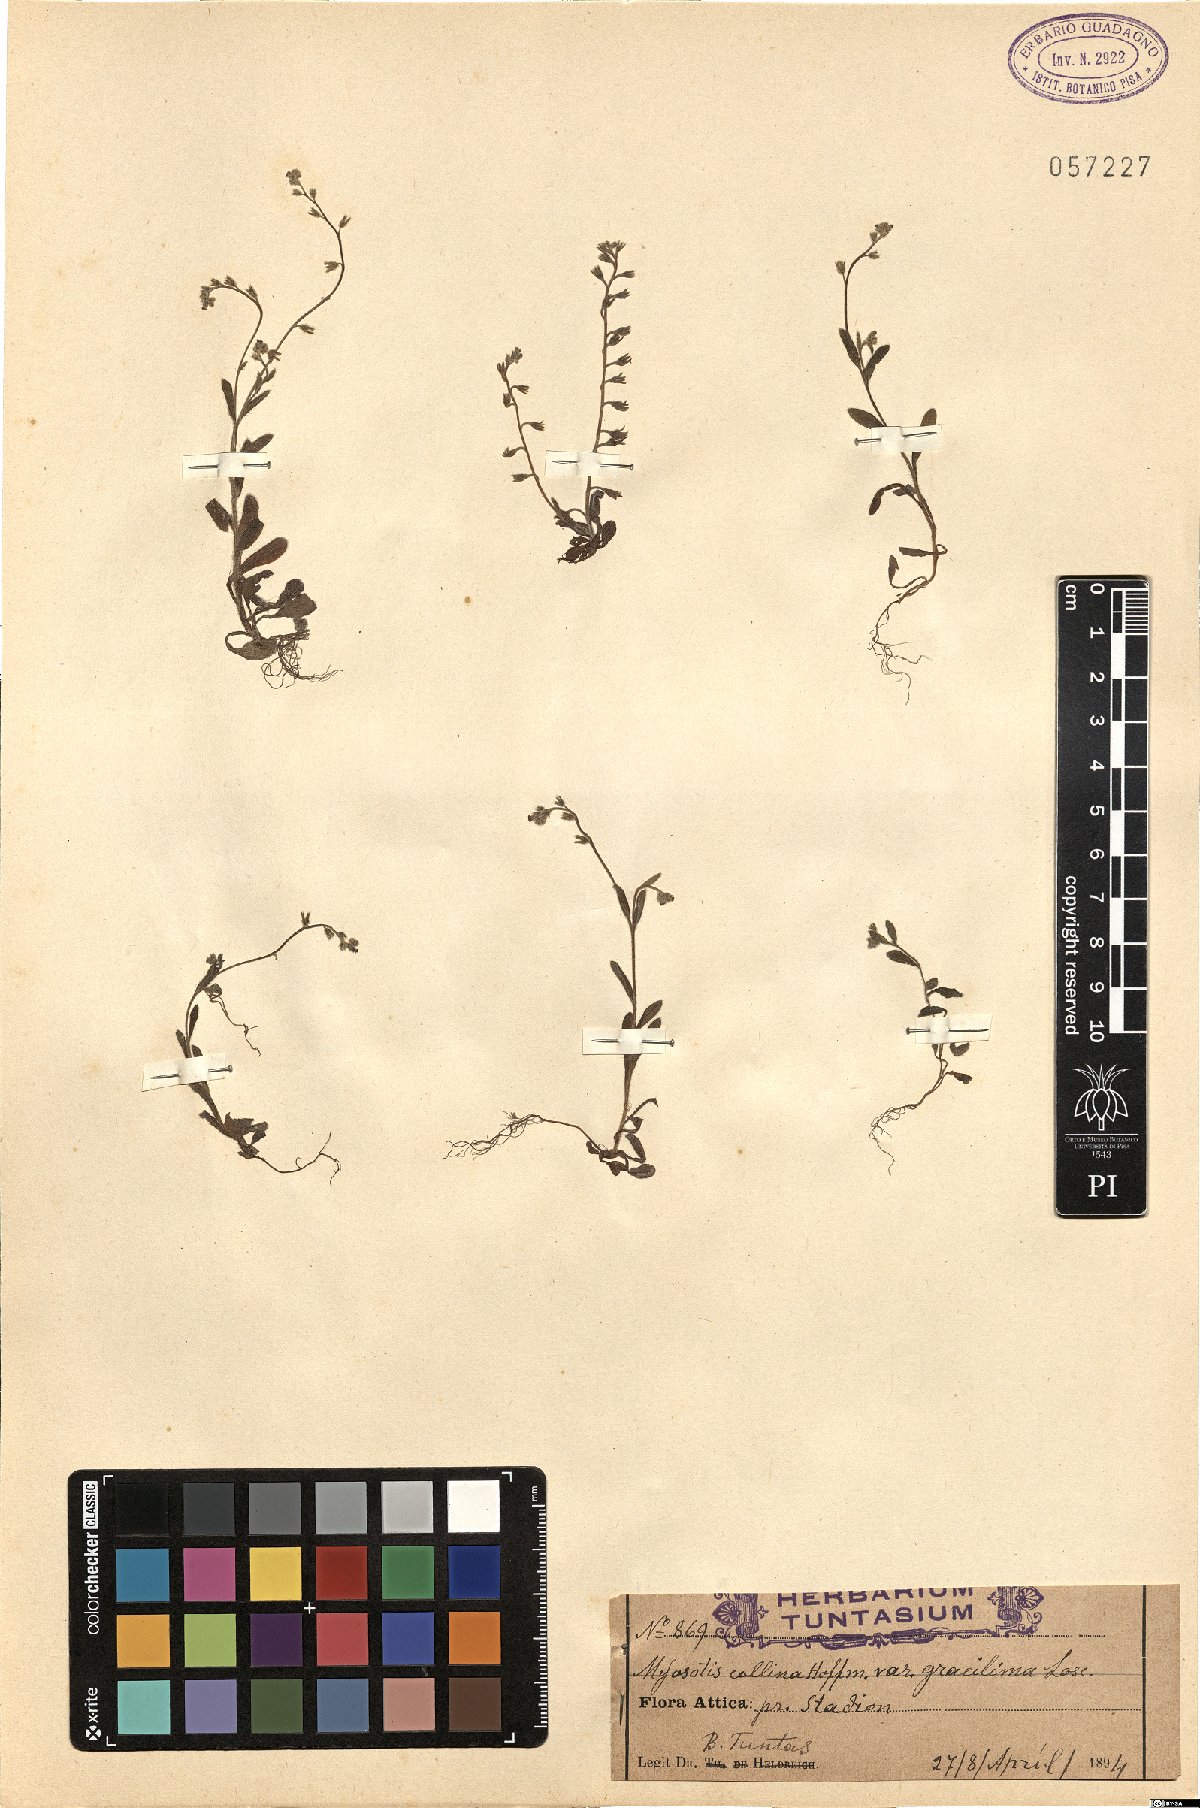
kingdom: Plantae
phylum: Tracheophyta
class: Magnoliopsida
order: Boraginales
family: Boraginaceae
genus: Myosotis
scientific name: Myosotis ramosissima
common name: Early forget-me-not
